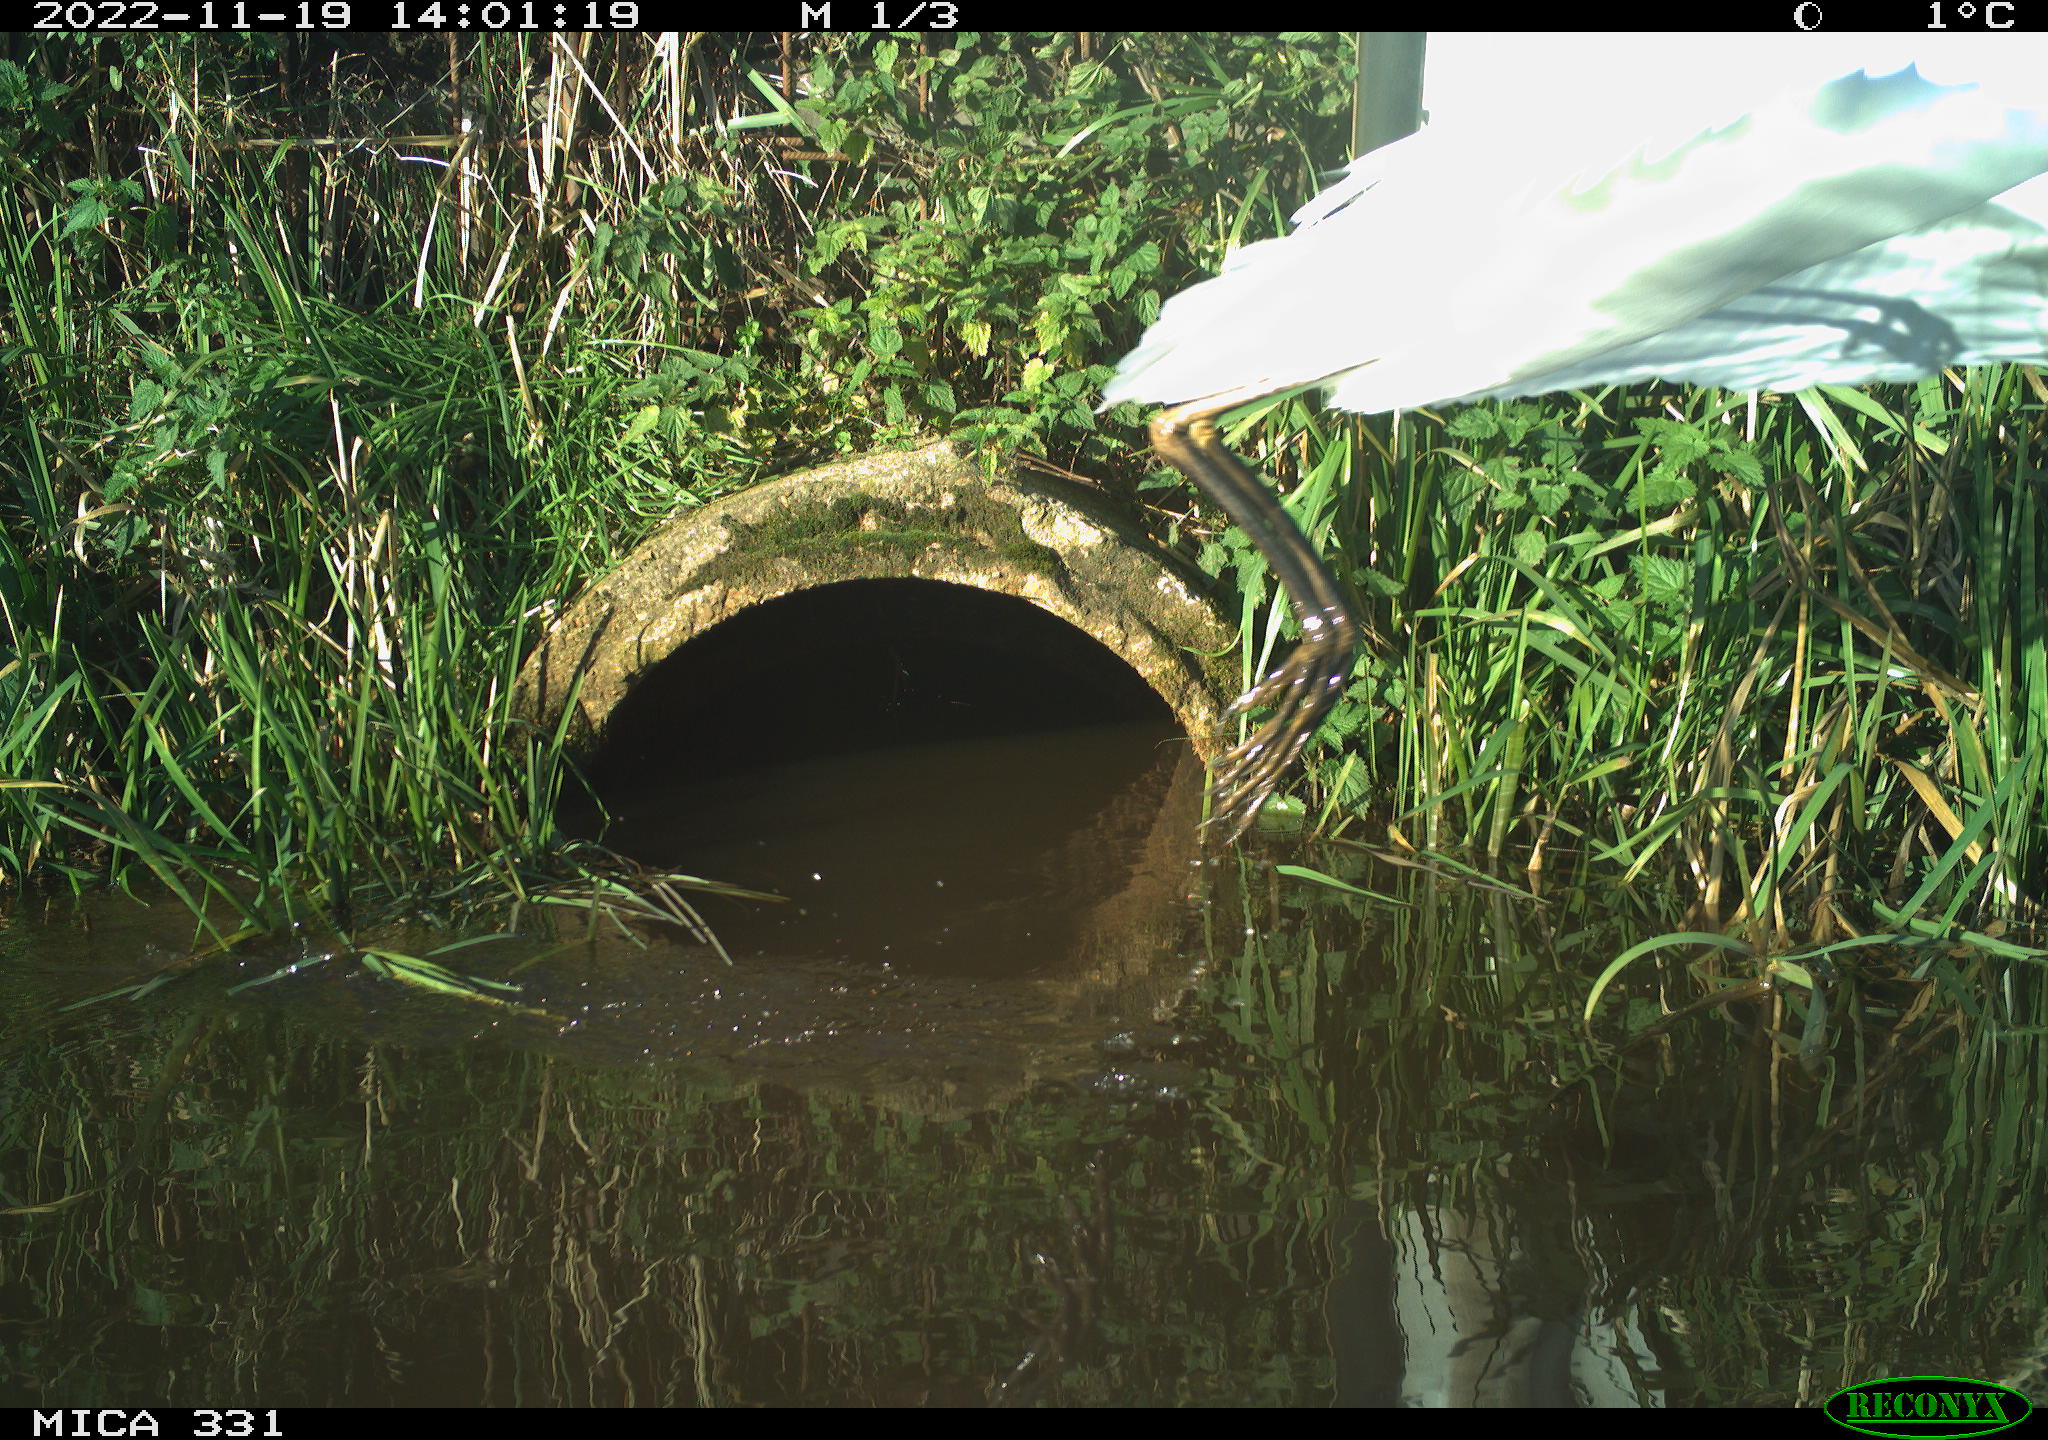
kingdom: Animalia
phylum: Chordata
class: Aves
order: Pelecaniformes
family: Ardeidae
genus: Ardea
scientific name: Ardea alba
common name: Great egret
